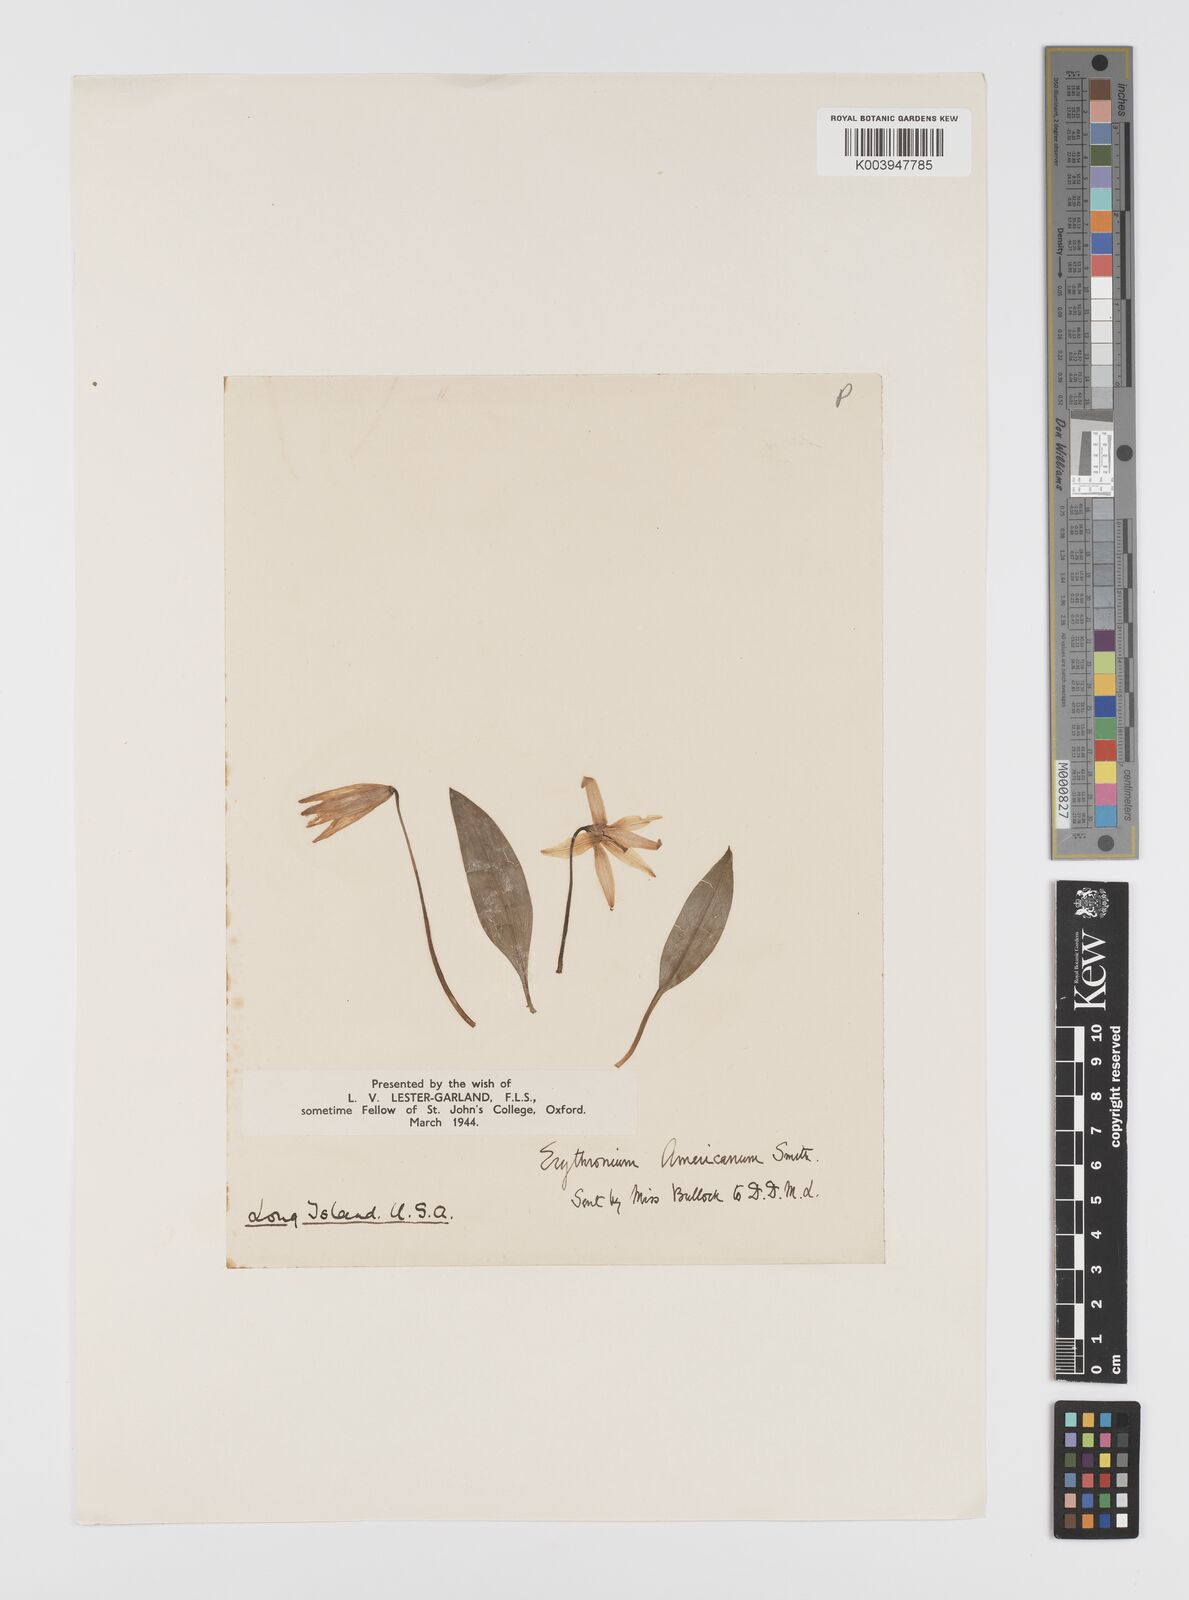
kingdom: Plantae
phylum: Tracheophyta
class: Liliopsida
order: Liliales
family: Liliaceae
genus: Erythronium
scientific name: Erythronium americanum
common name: Yellow adder's-tongue
